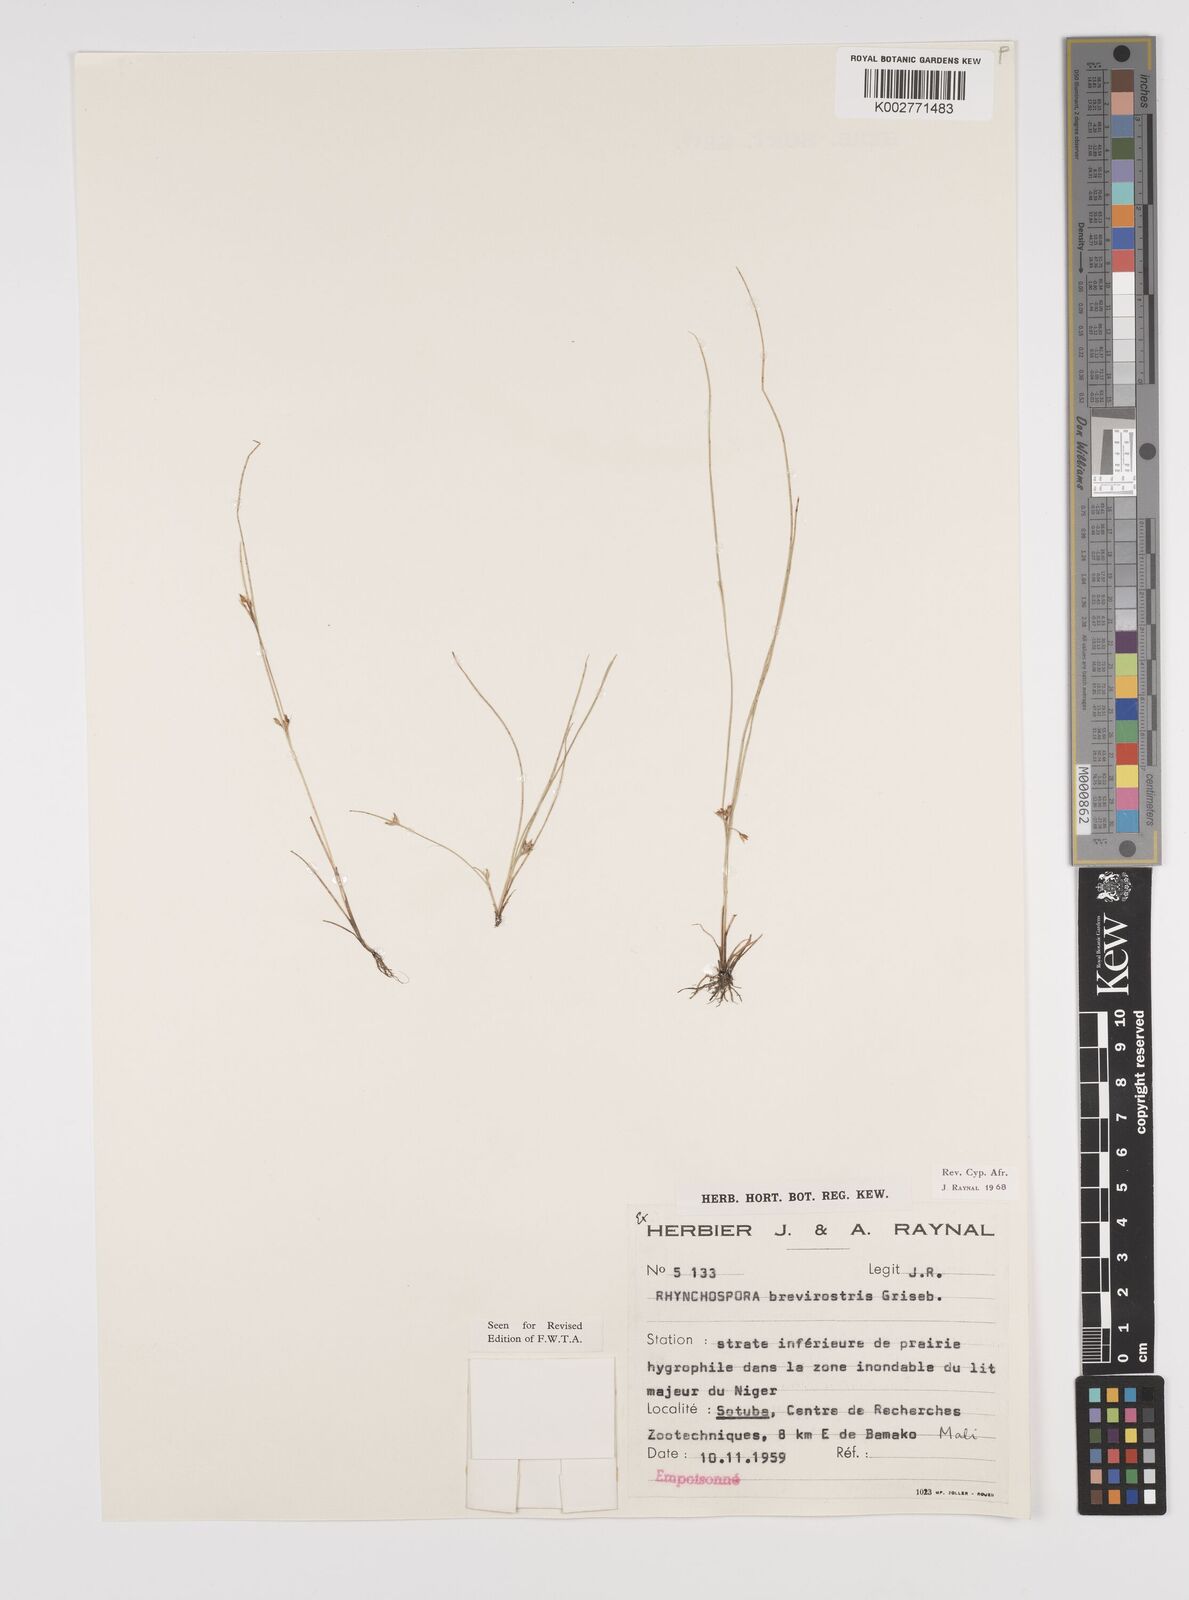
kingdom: Plantae
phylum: Tracheophyta
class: Liliopsida
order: Poales
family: Cyperaceae
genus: Rhynchospora
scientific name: Rhynchospora brevirostris
